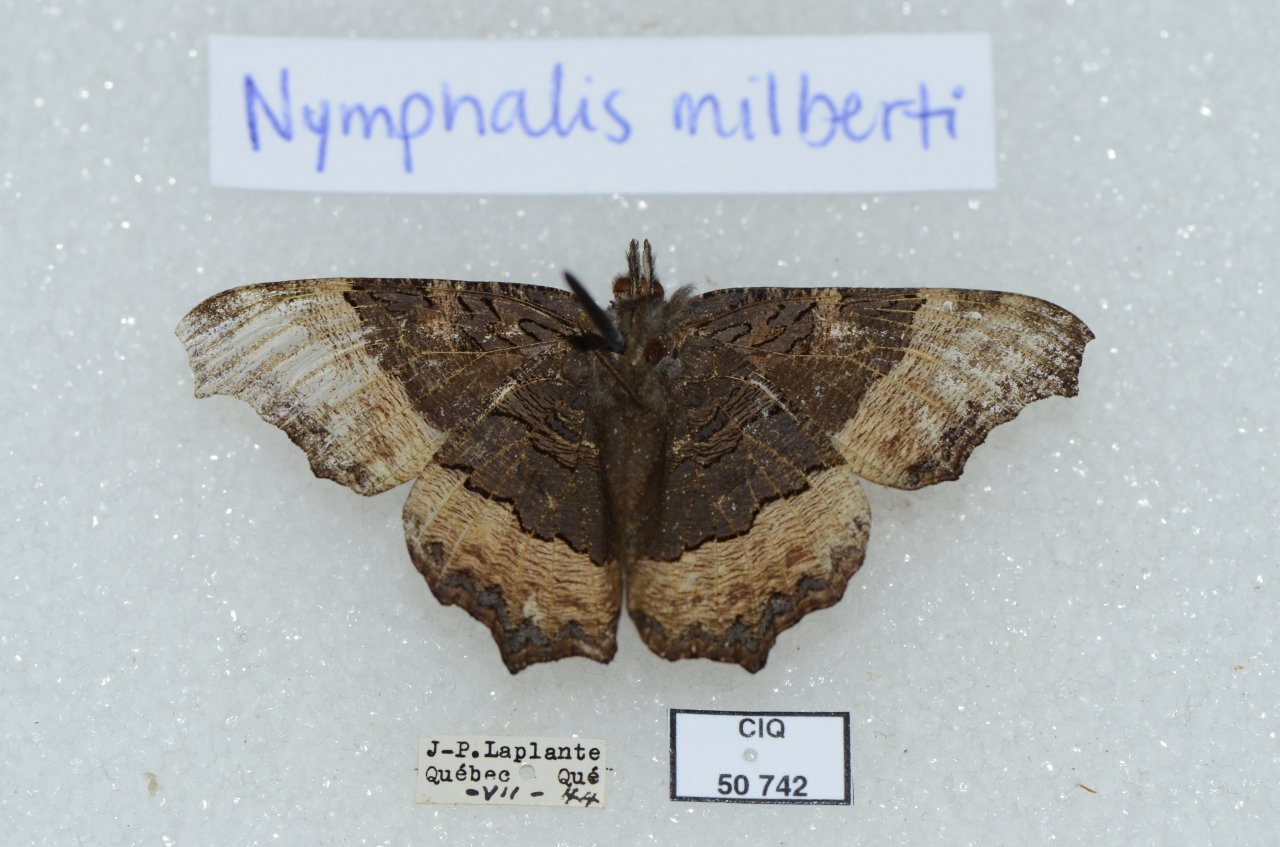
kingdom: Animalia
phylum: Arthropoda
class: Insecta
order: Lepidoptera
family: Nymphalidae
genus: Aglais
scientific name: Aglais milberti
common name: Milbert's Tortoiseshell
